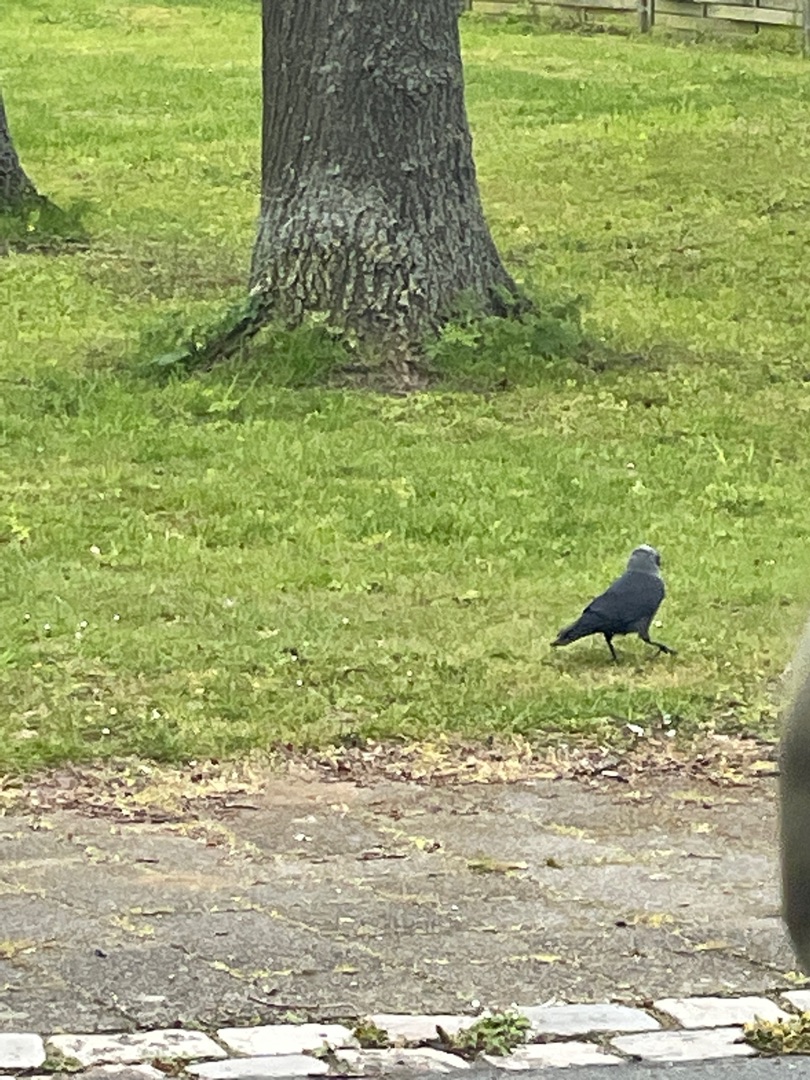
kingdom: Animalia
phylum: Chordata
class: Aves
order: Passeriformes
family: Corvidae
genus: Coloeus
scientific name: Coloeus monedula
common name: Allike
